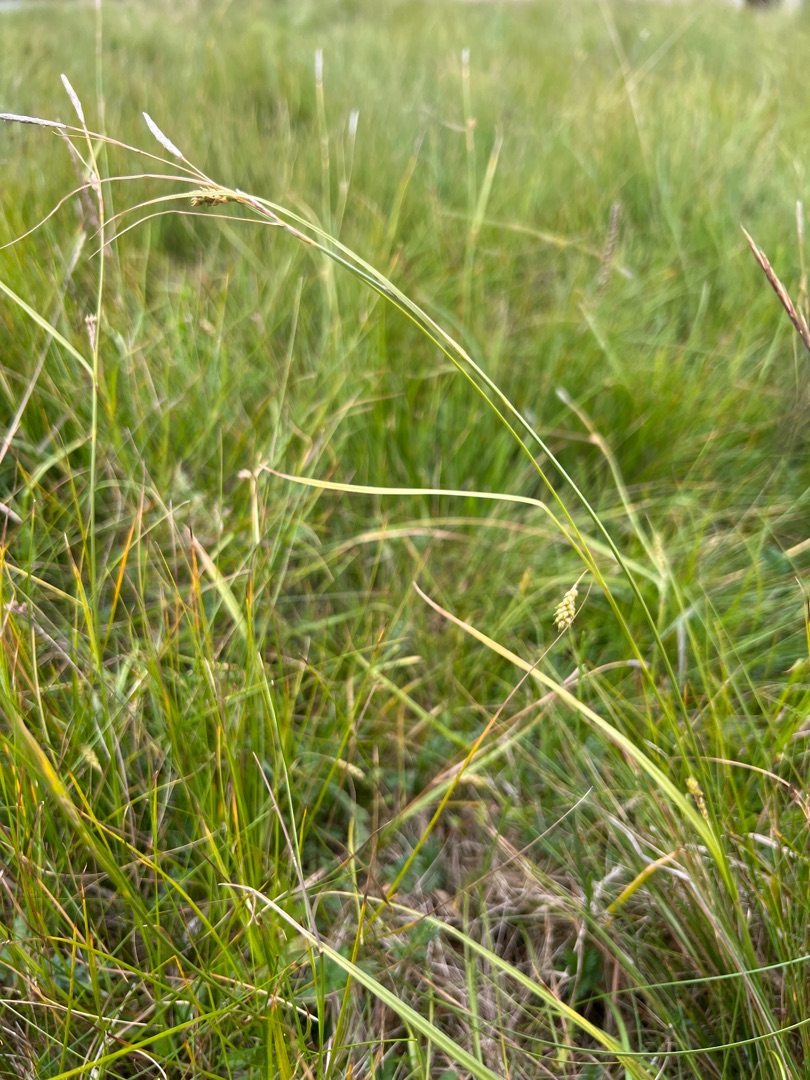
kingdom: Plantae
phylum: Tracheophyta
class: Liliopsida
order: Poales
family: Cyperaceae
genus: Carex
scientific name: Carex distans
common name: Fjernakset star
